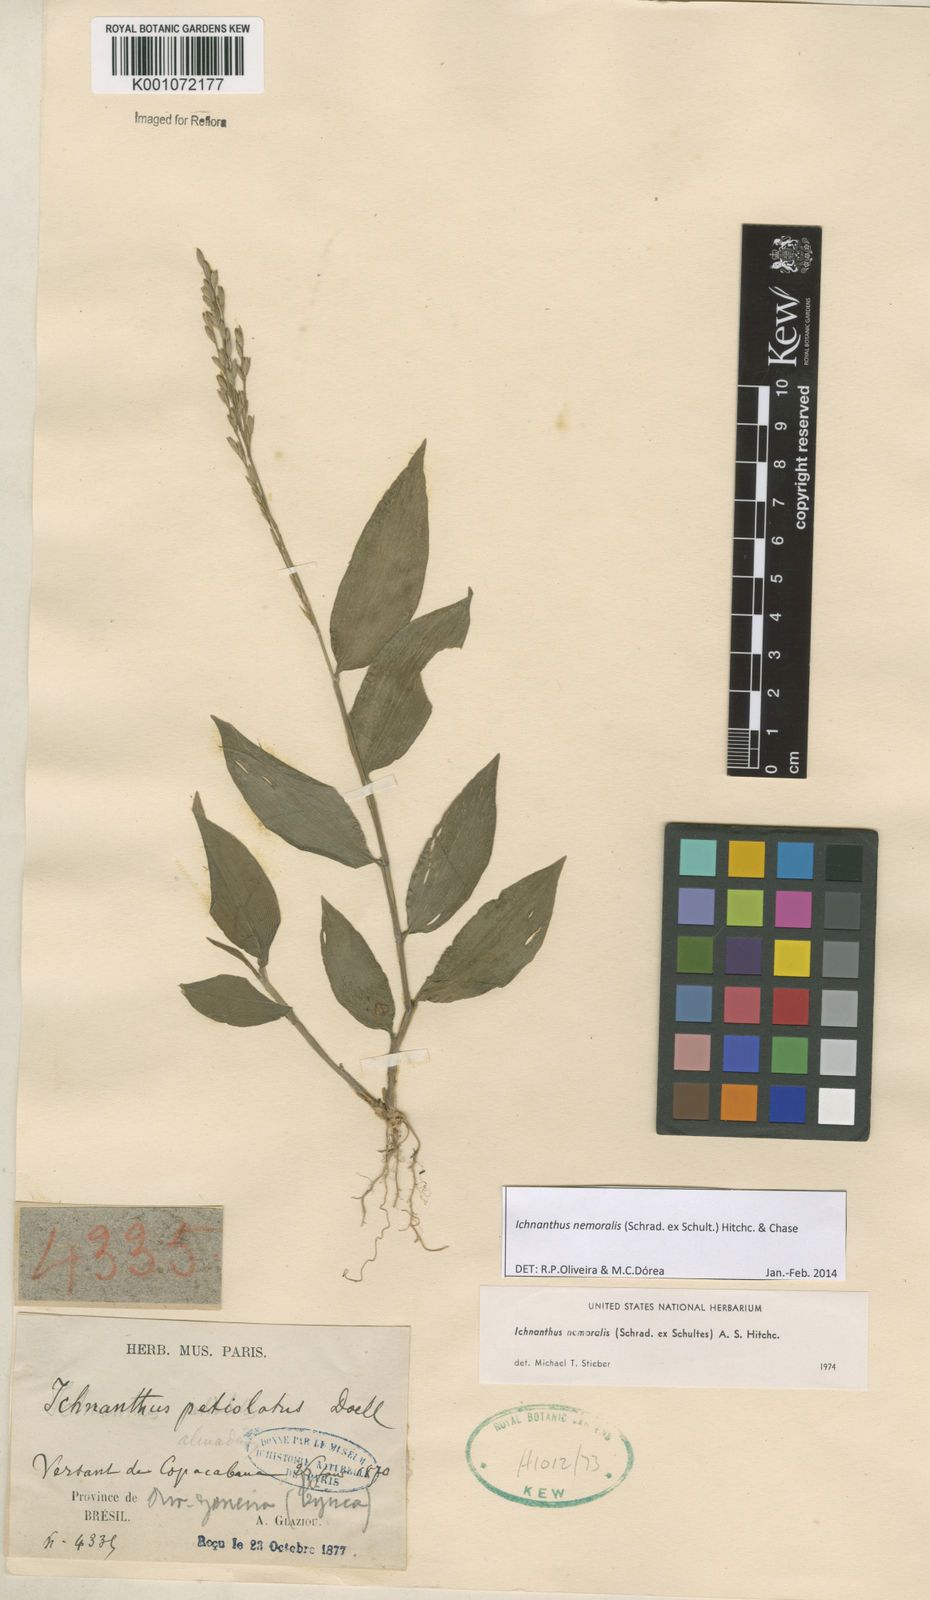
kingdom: Plantae
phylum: Tracheophyta
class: Liliopsida
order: Poales
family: Poaceae
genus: Ichnanthus
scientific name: Ichnanthus nemoralis
